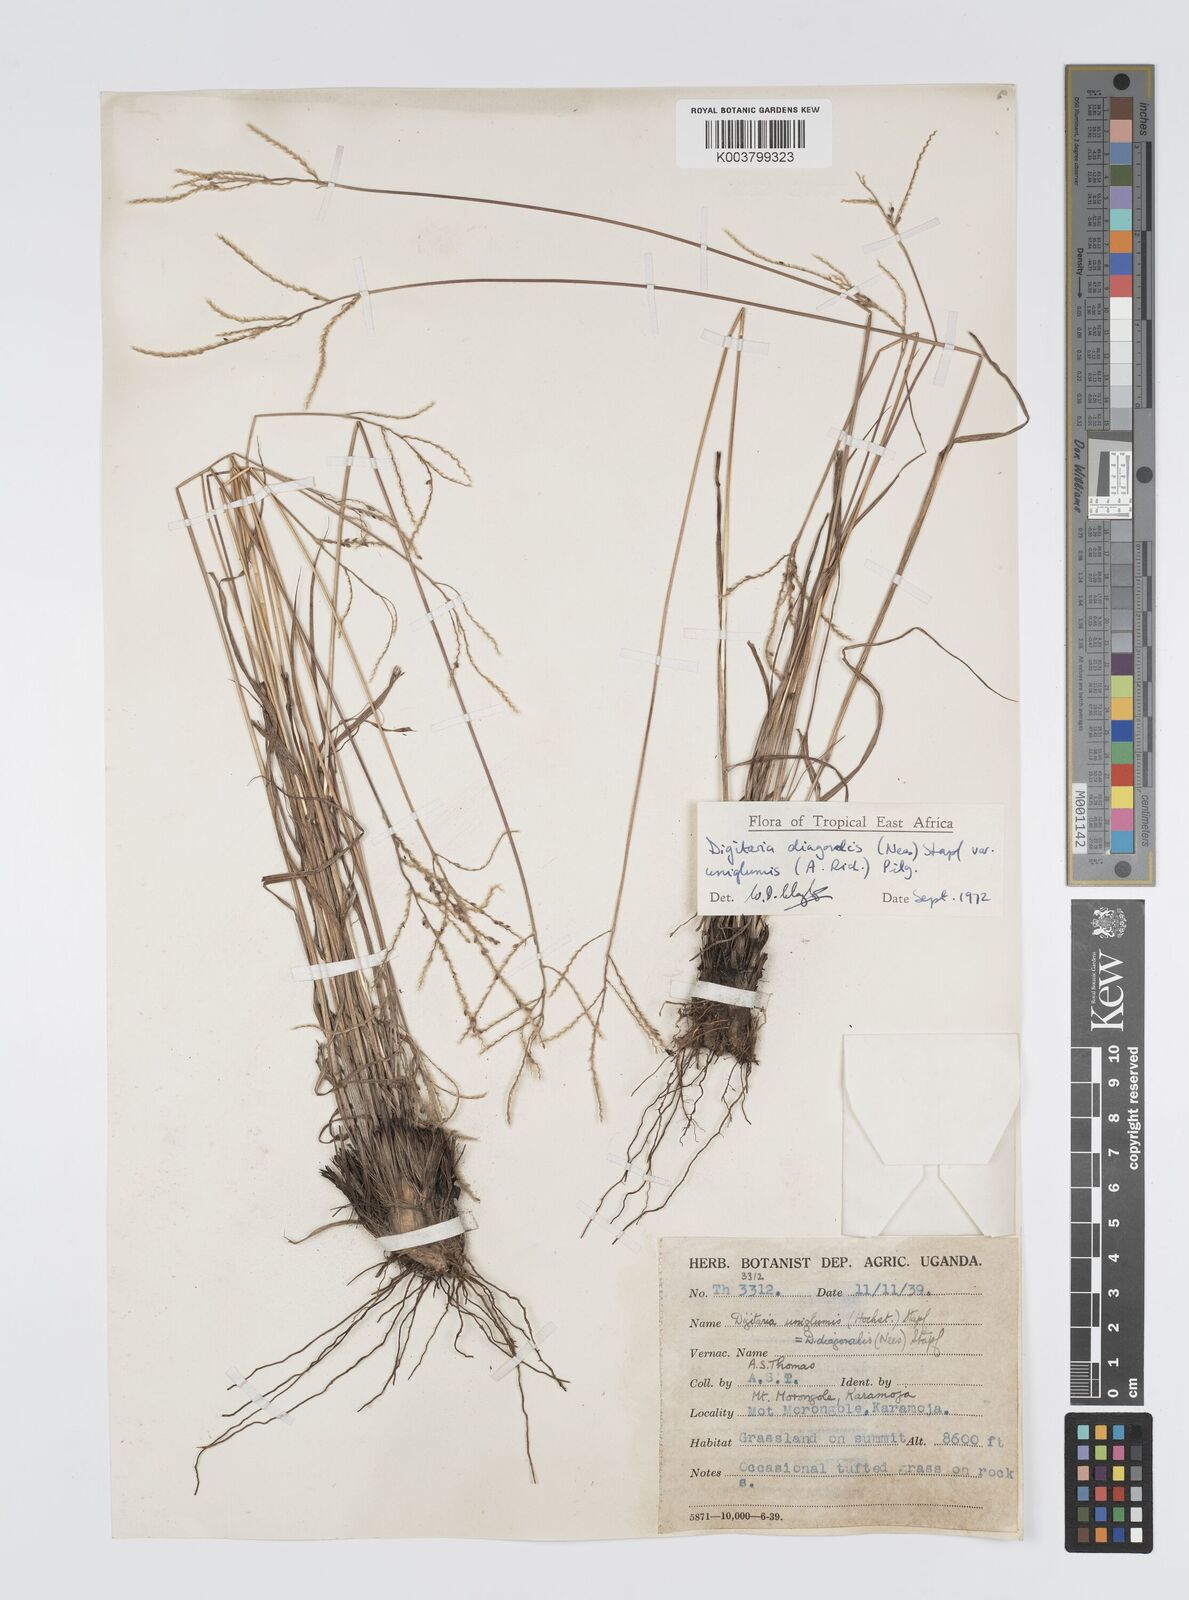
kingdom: Plantae
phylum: Tracheophyta
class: Liliopsida
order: Poales
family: Poaceae
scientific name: Poaceae
